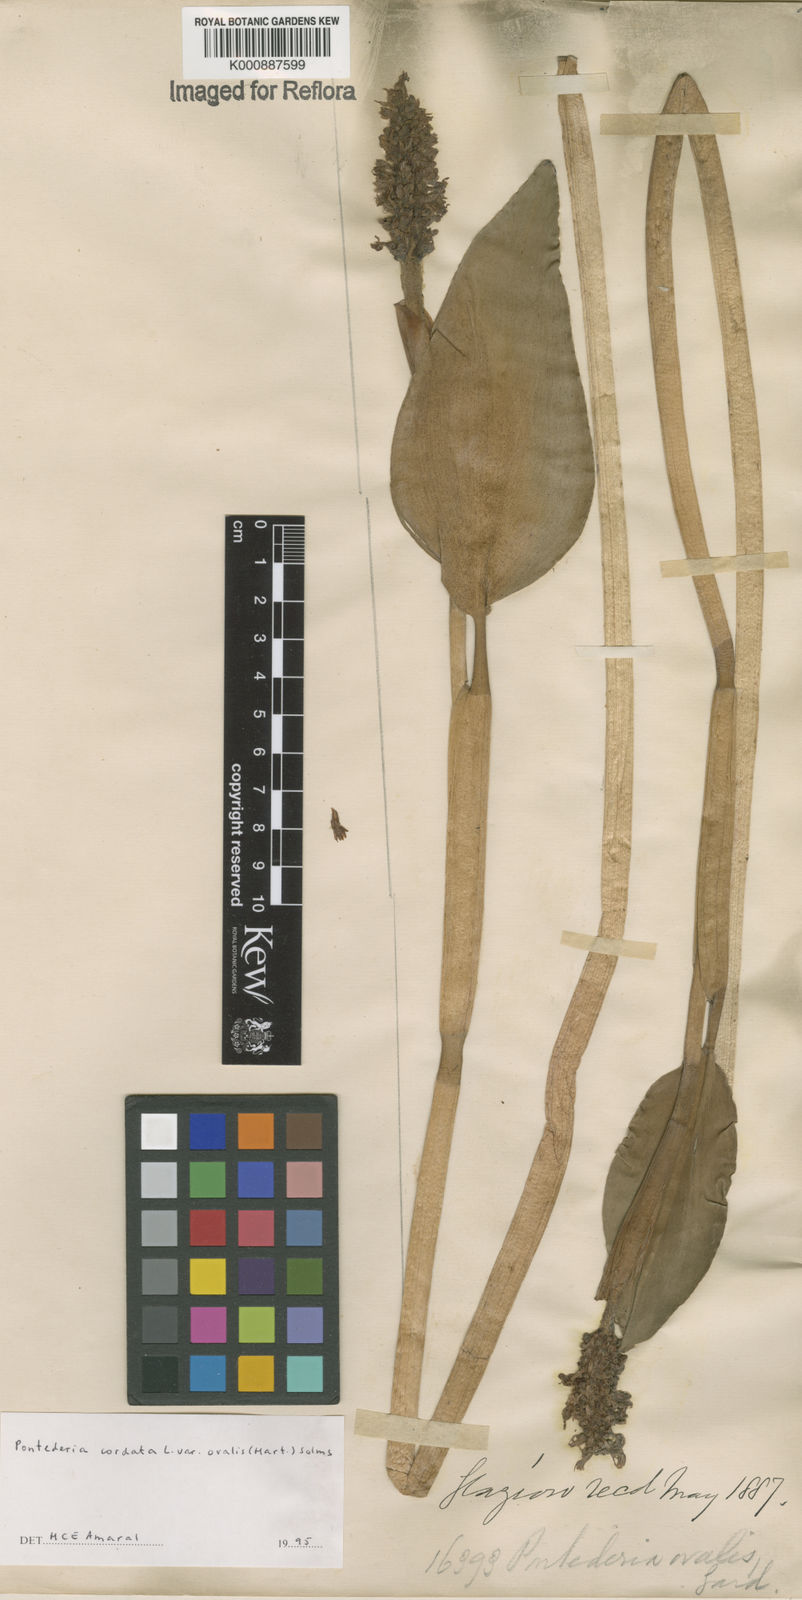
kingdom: Plantae
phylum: Tracheophyta
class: Liliopsida
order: Commelinales
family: Pontederiaceae
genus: Pontederia
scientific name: Pontederia cordata
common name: Pickerelweed
